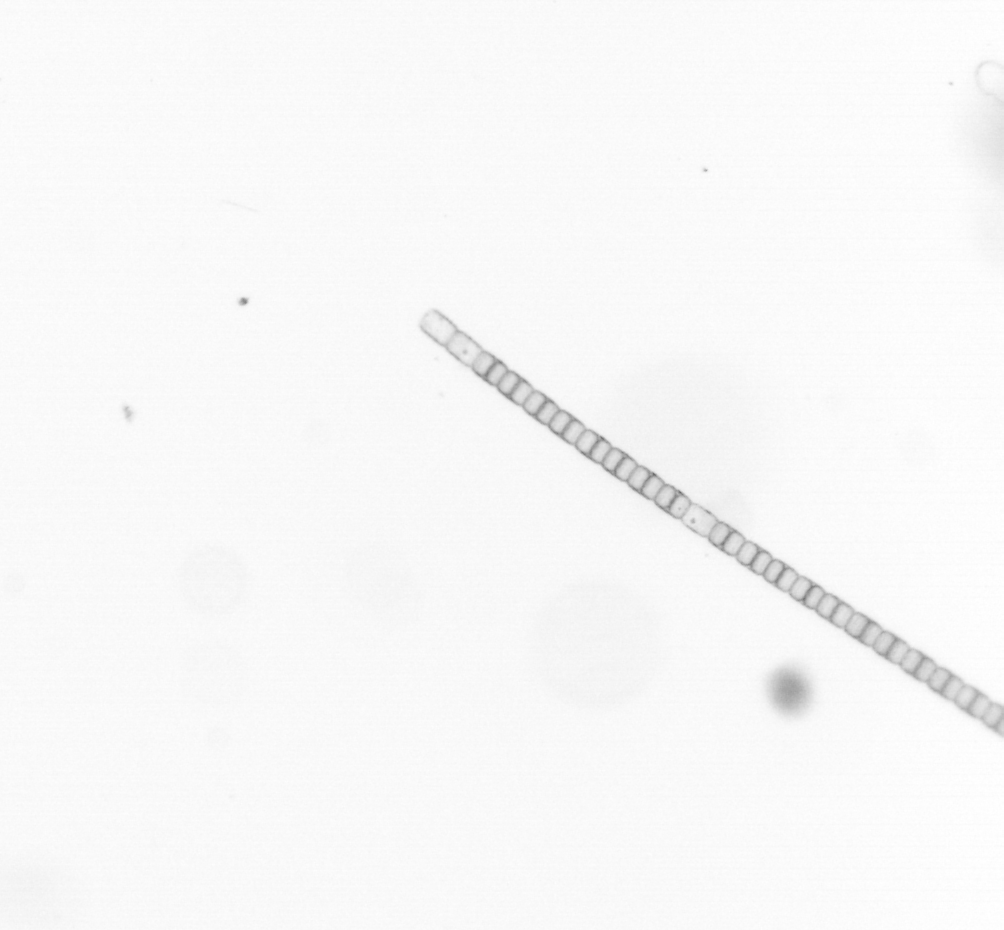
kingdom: Chromista
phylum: Ochrophyta
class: Bacillariophyceae
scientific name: Bacillariophyceae
